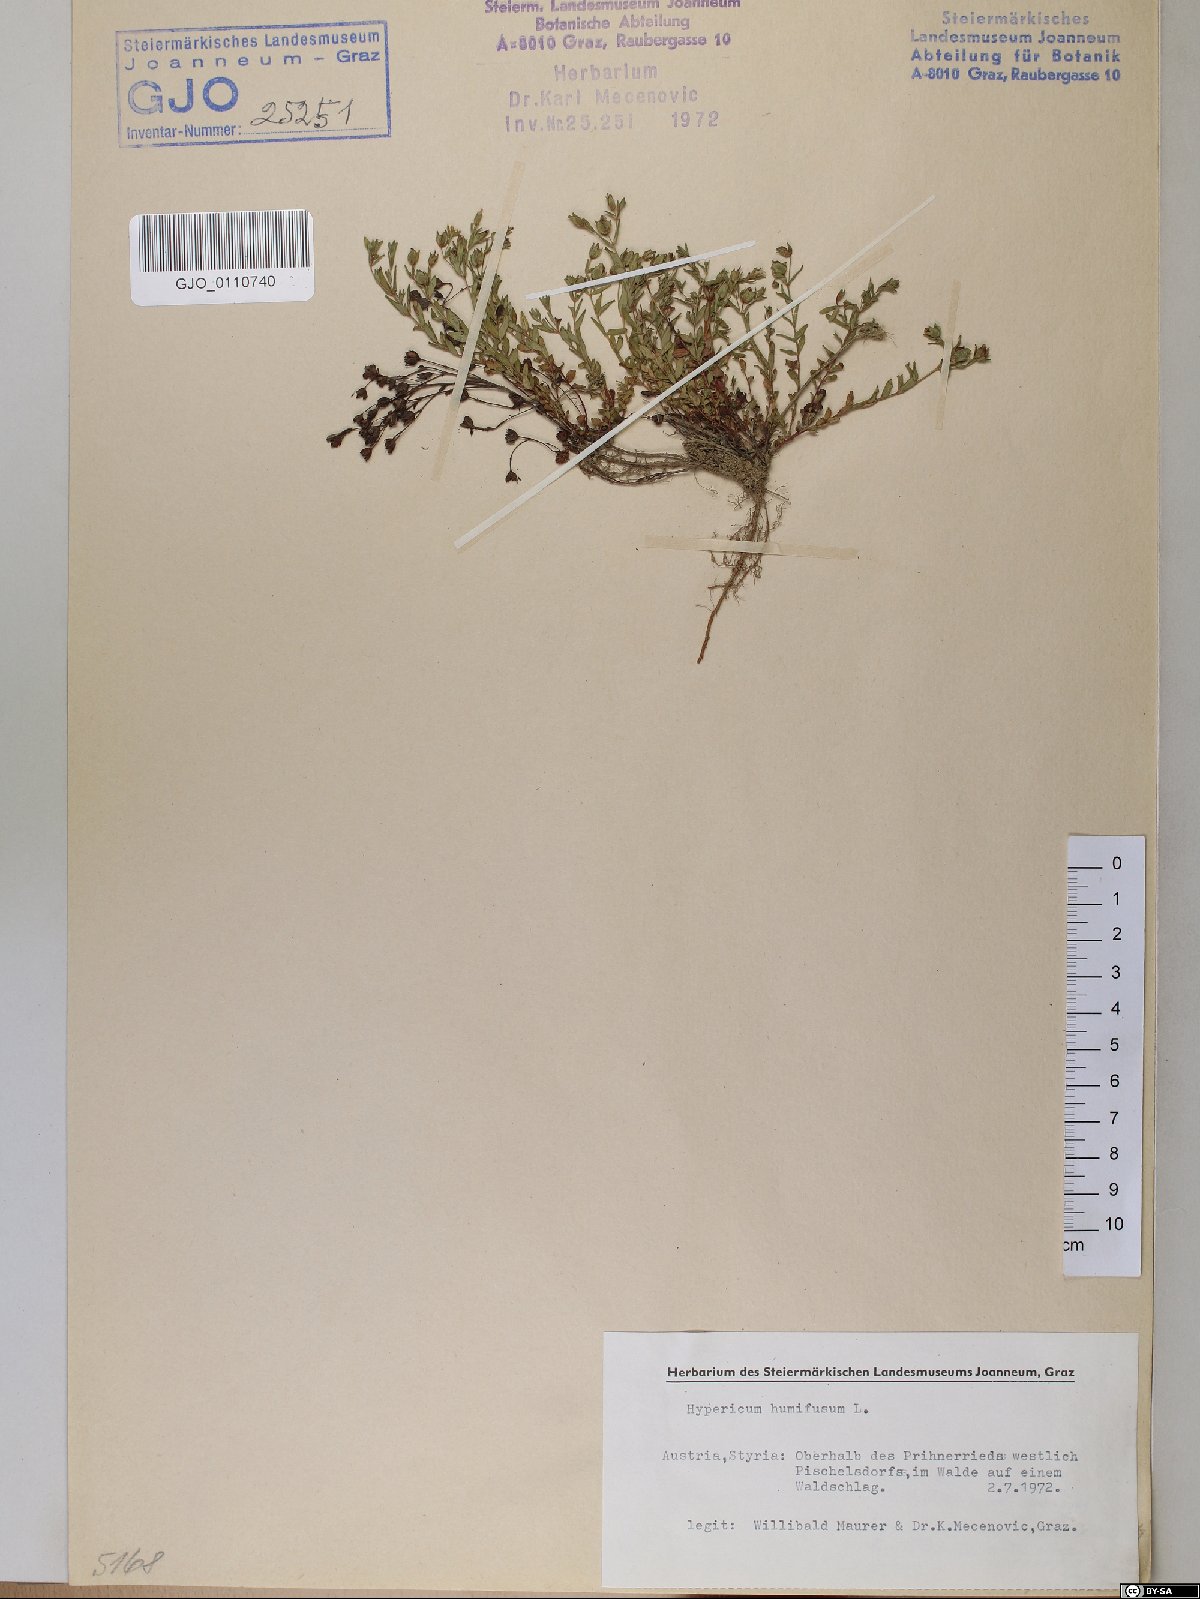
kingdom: Plantae
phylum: Tracheophyta
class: Magnoliopsida
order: Malpighiales
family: Hypericaceae
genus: Hypericum
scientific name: Hypericum humifusum
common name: Trailing st. john's-wort
